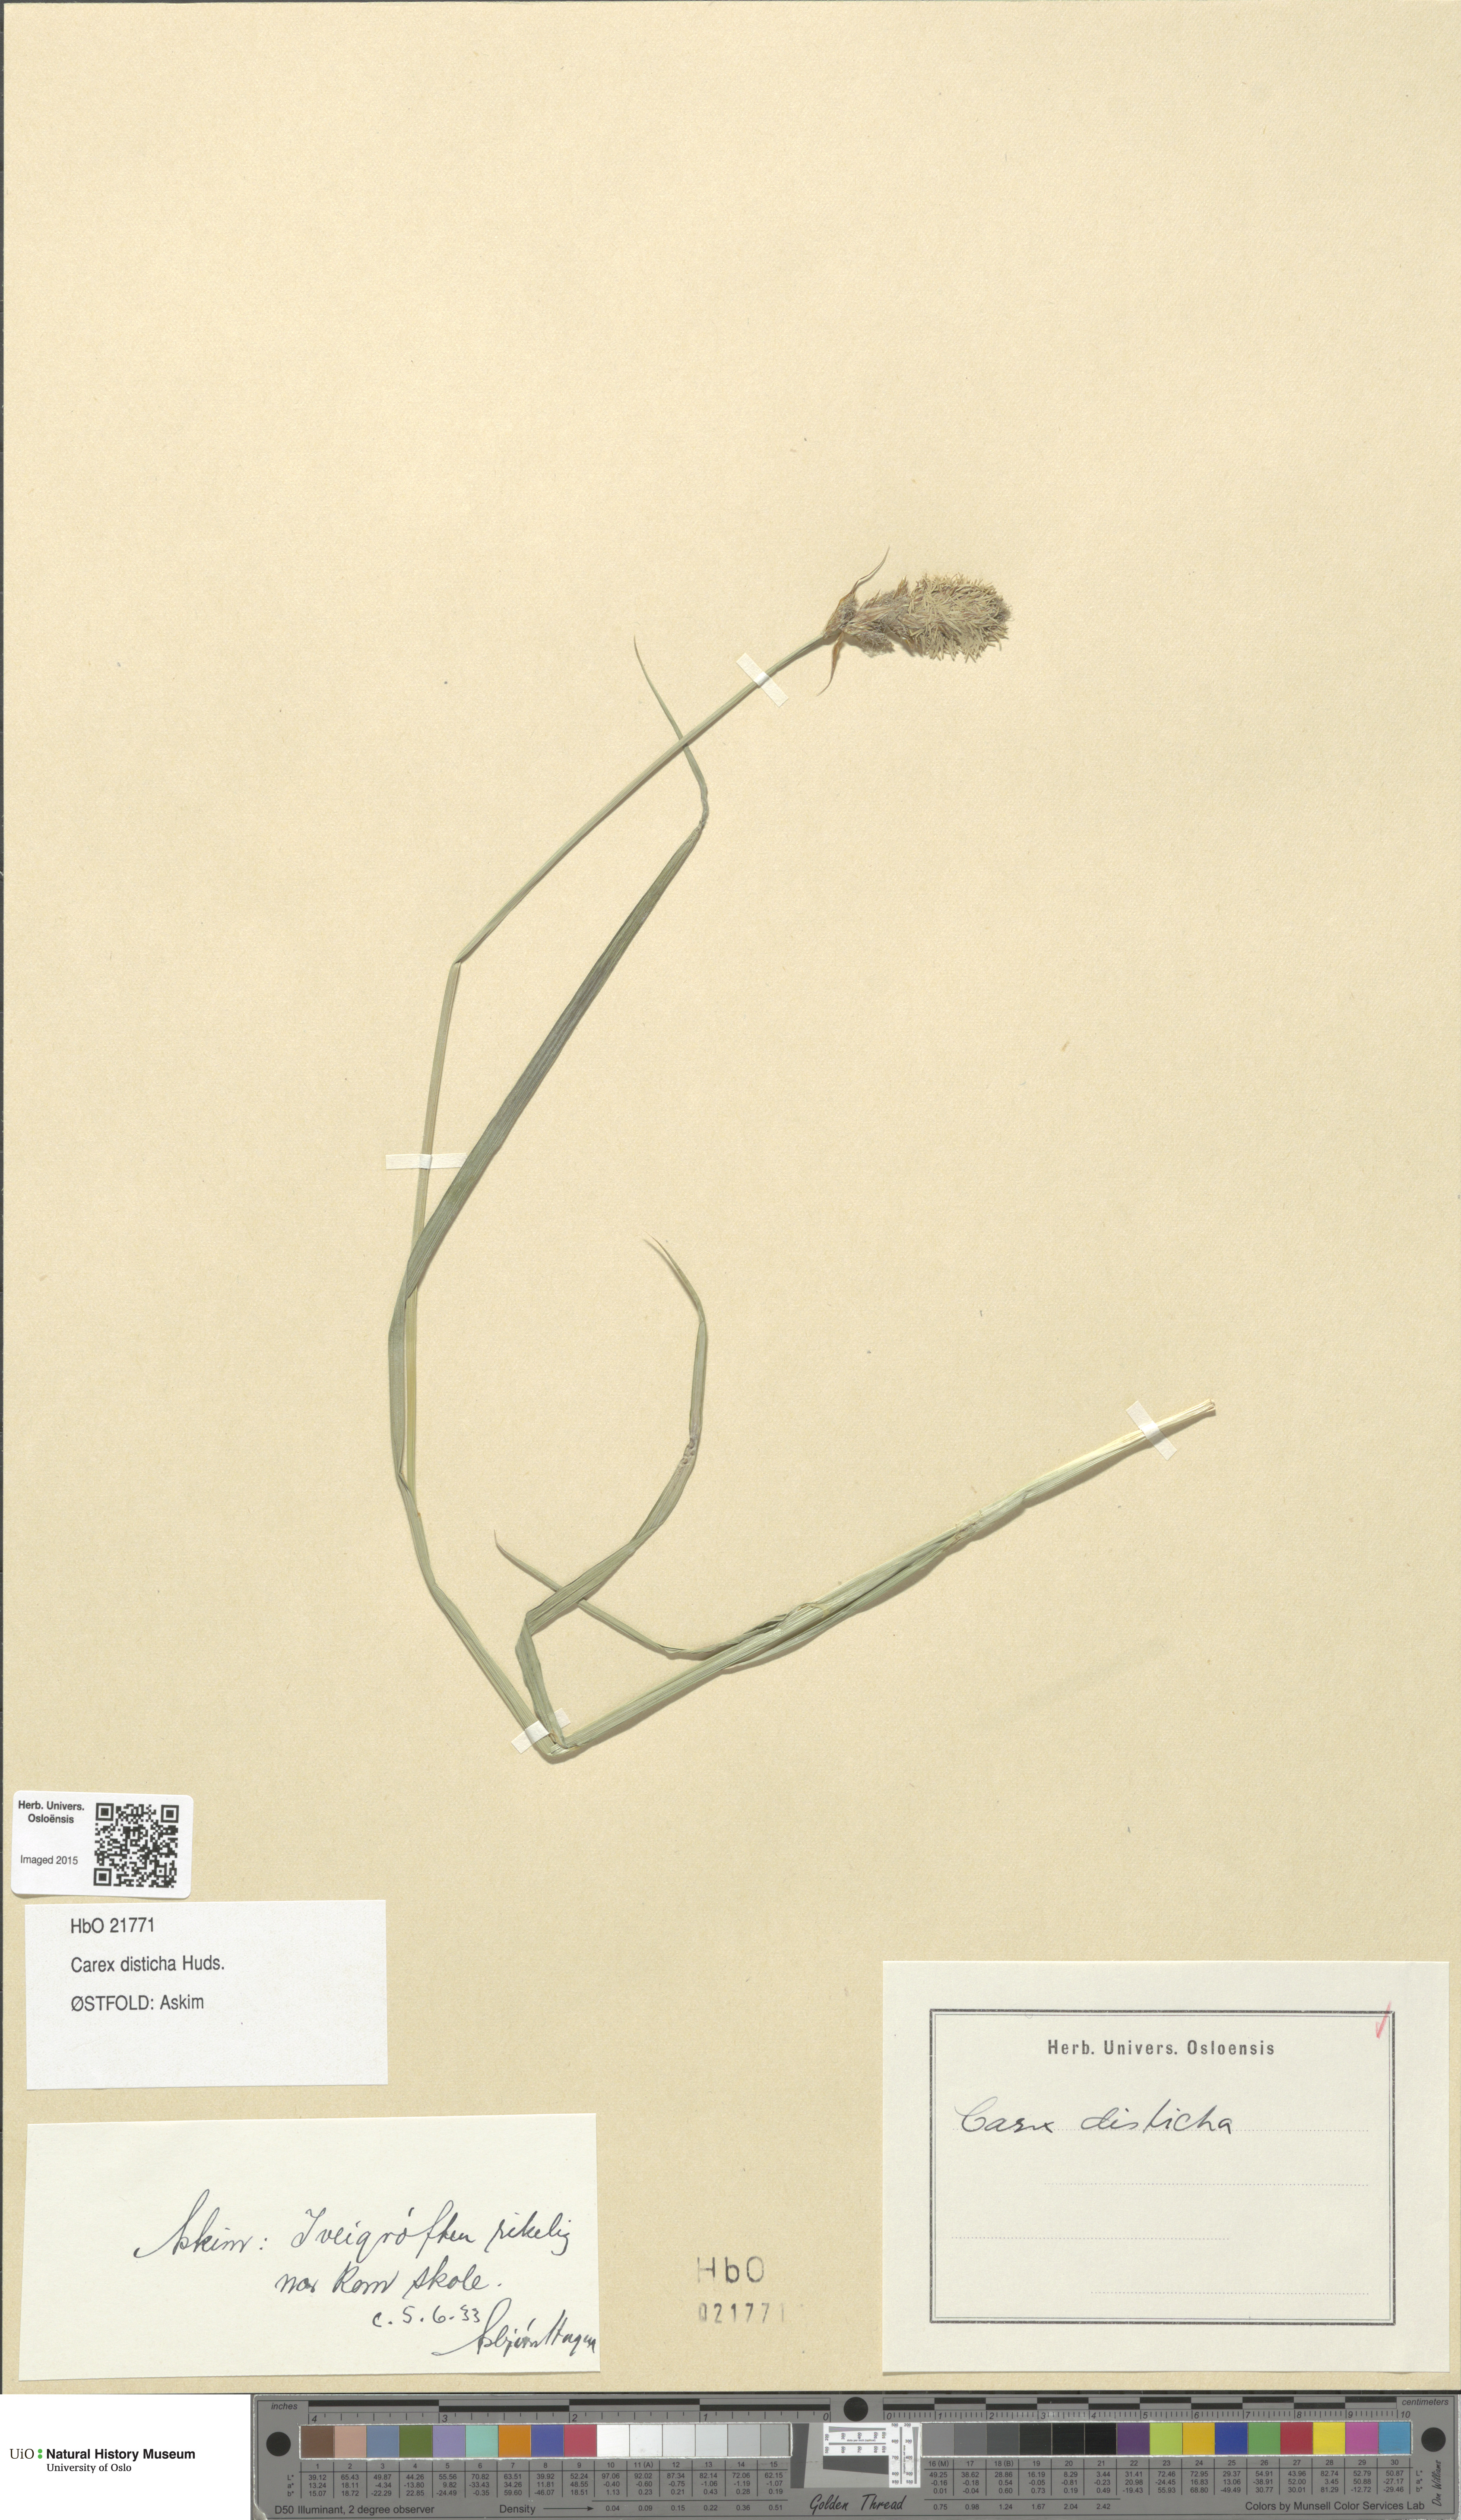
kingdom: Plantae
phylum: Tracheophyta
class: Liliopsida
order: Poales
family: Cyperaceae
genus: Carex
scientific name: Carex disticha
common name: Brown sedge
